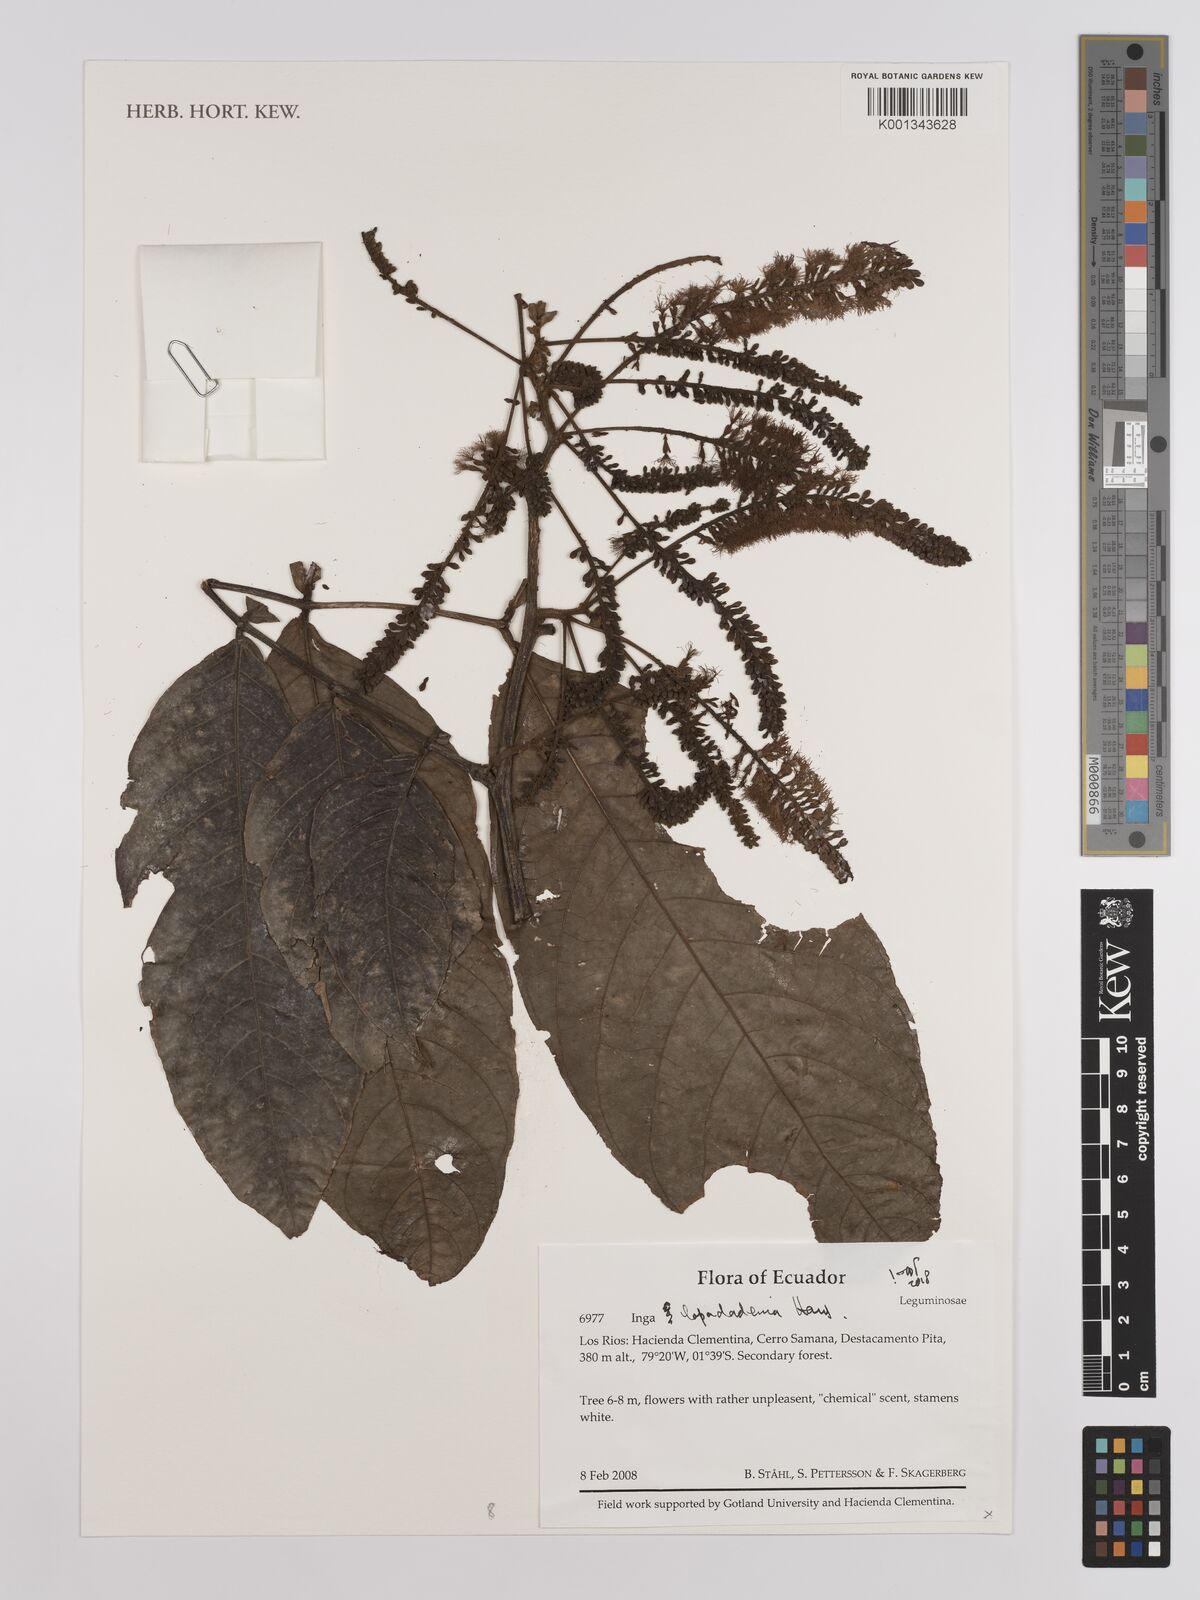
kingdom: Plantae
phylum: Tracheophyta
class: Magnoliopsida
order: Fabales
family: Fabaceae
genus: Inga
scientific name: Inga lopadadenia
